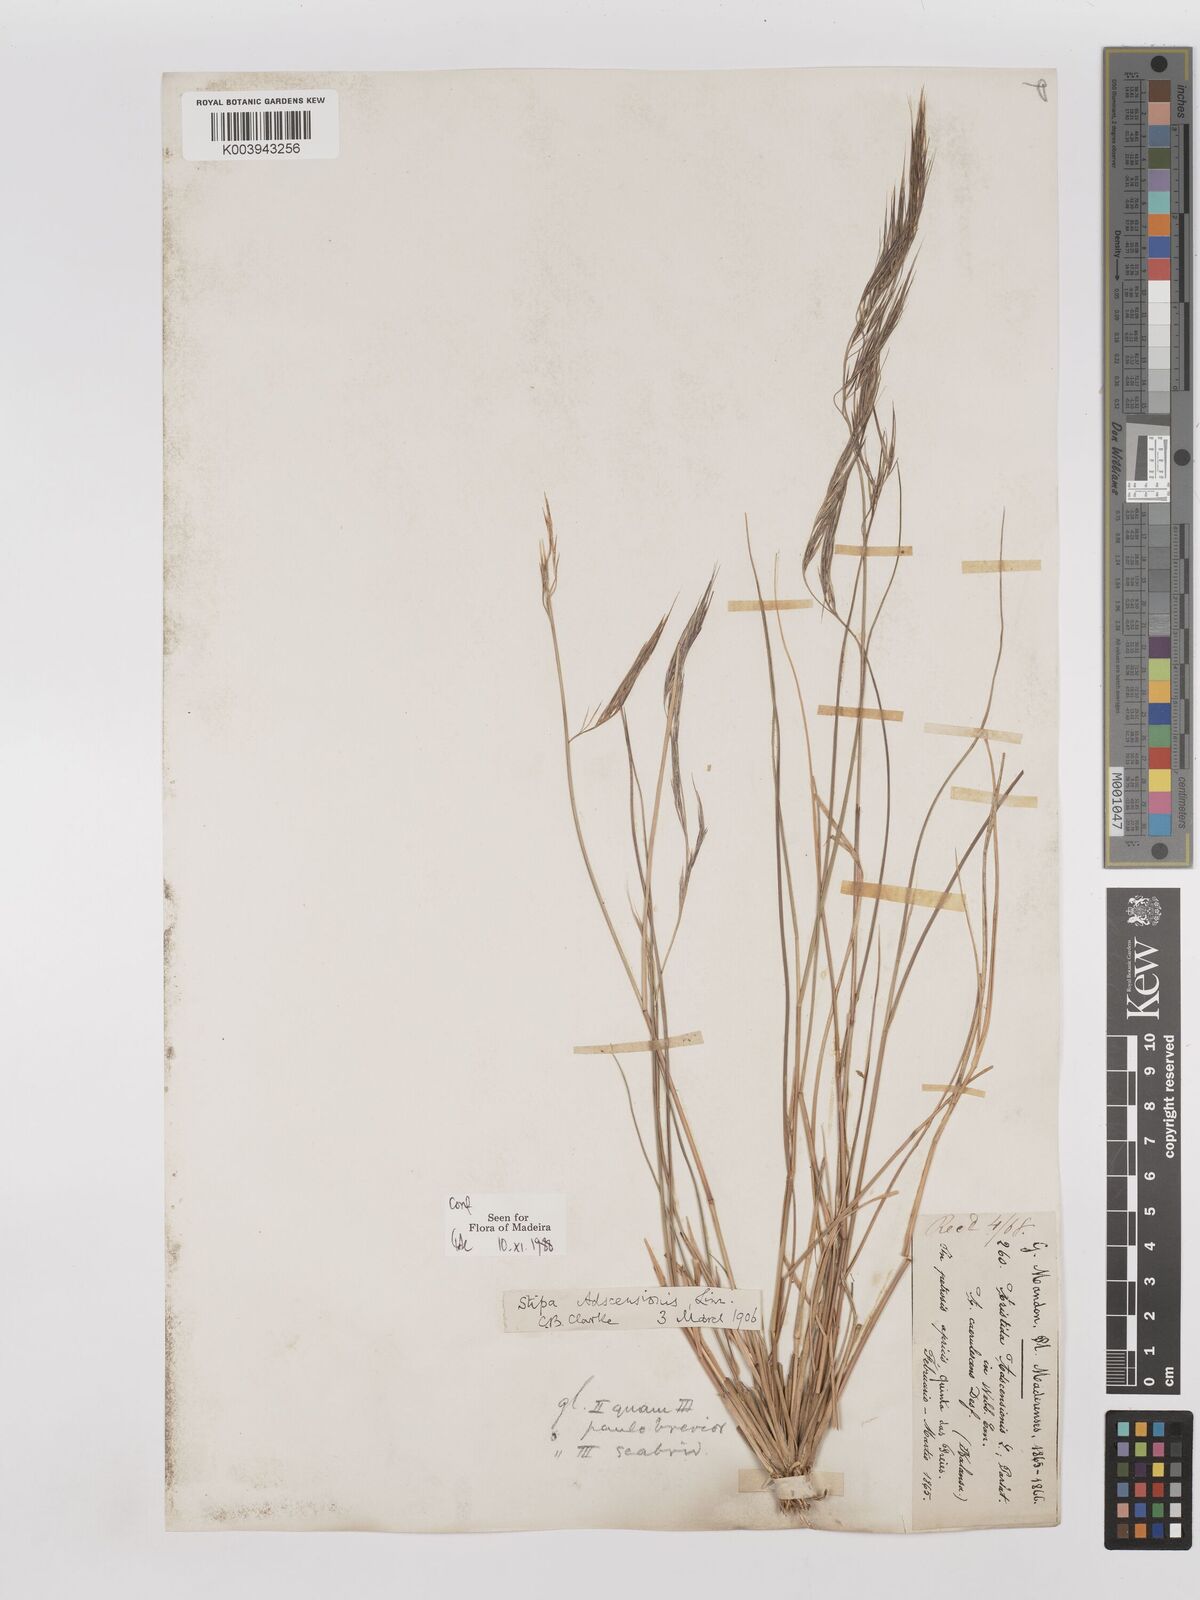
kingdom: Plantae
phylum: Tracheophyta
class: Liliopsida
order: Poales
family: Poaceae
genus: Aristida
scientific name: Aristida adscensionis
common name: Sixweeks threeawn
